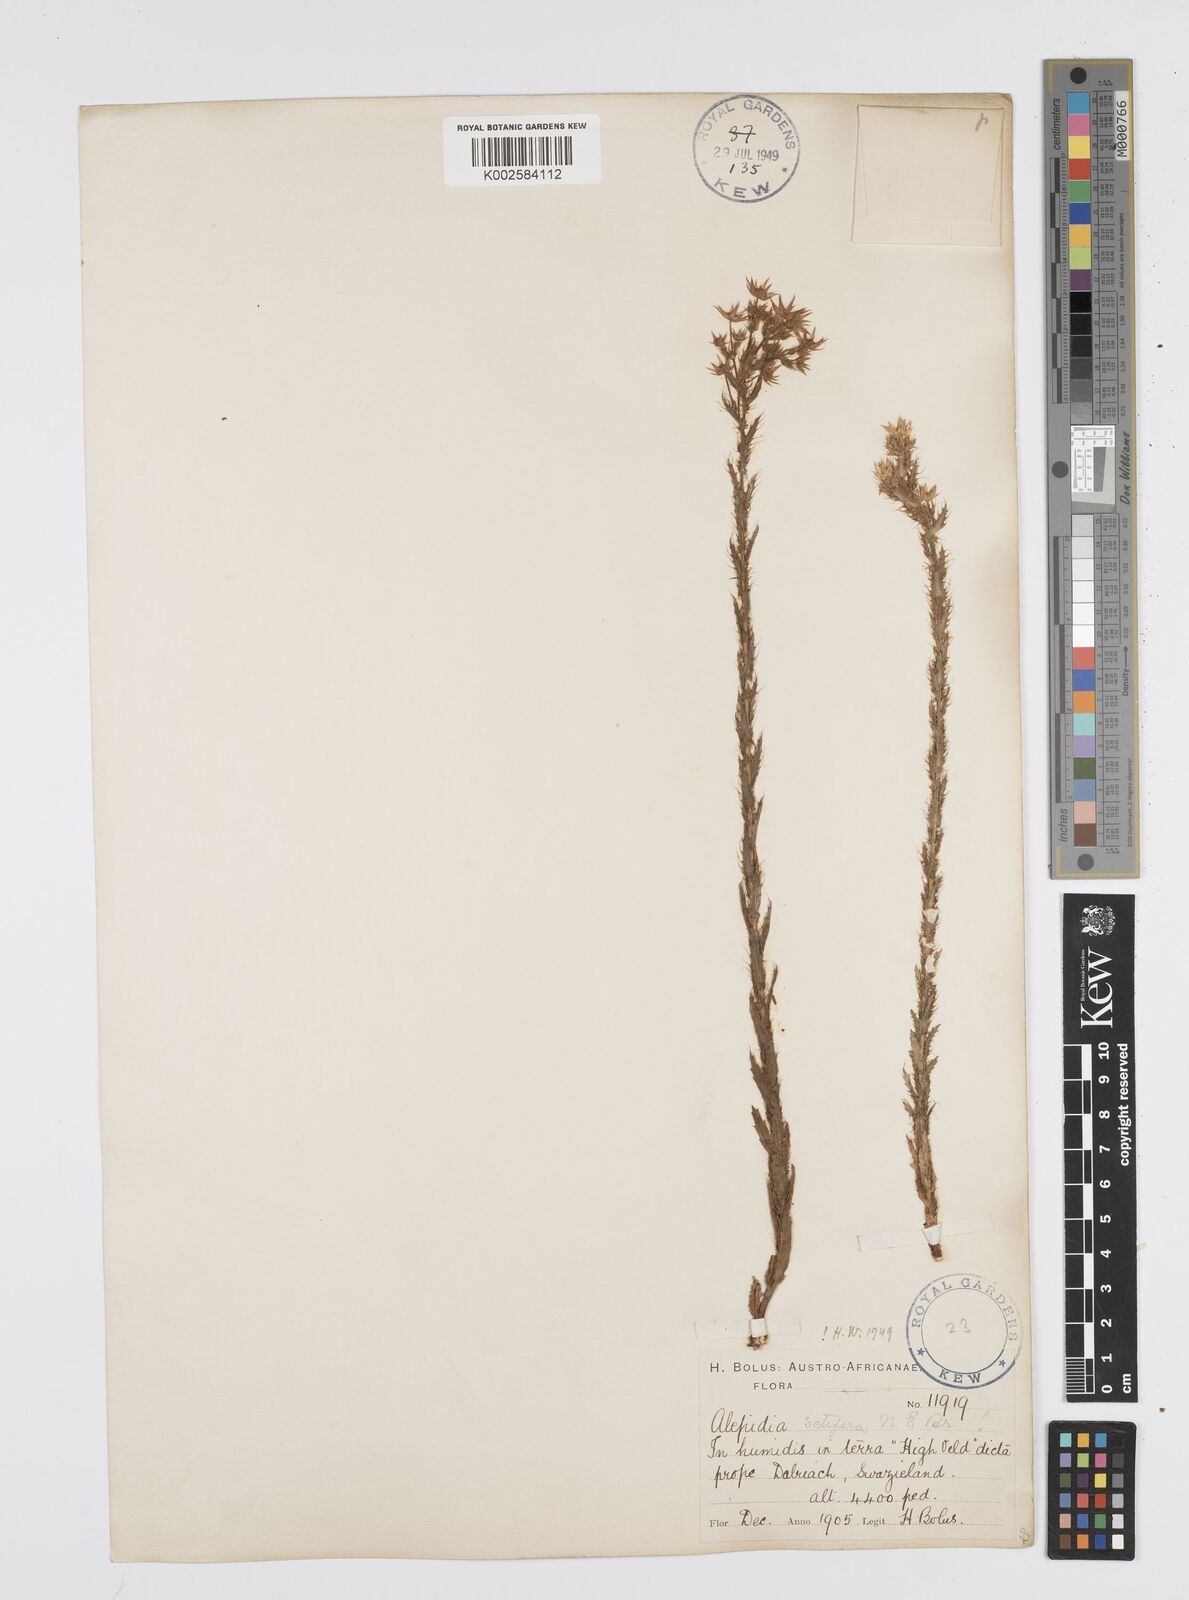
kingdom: Plantae
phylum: Tracheophyta
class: Magnoliopsida
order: Apiales
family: Apiaceae
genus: Alepidea
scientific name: Alepidea setifera
